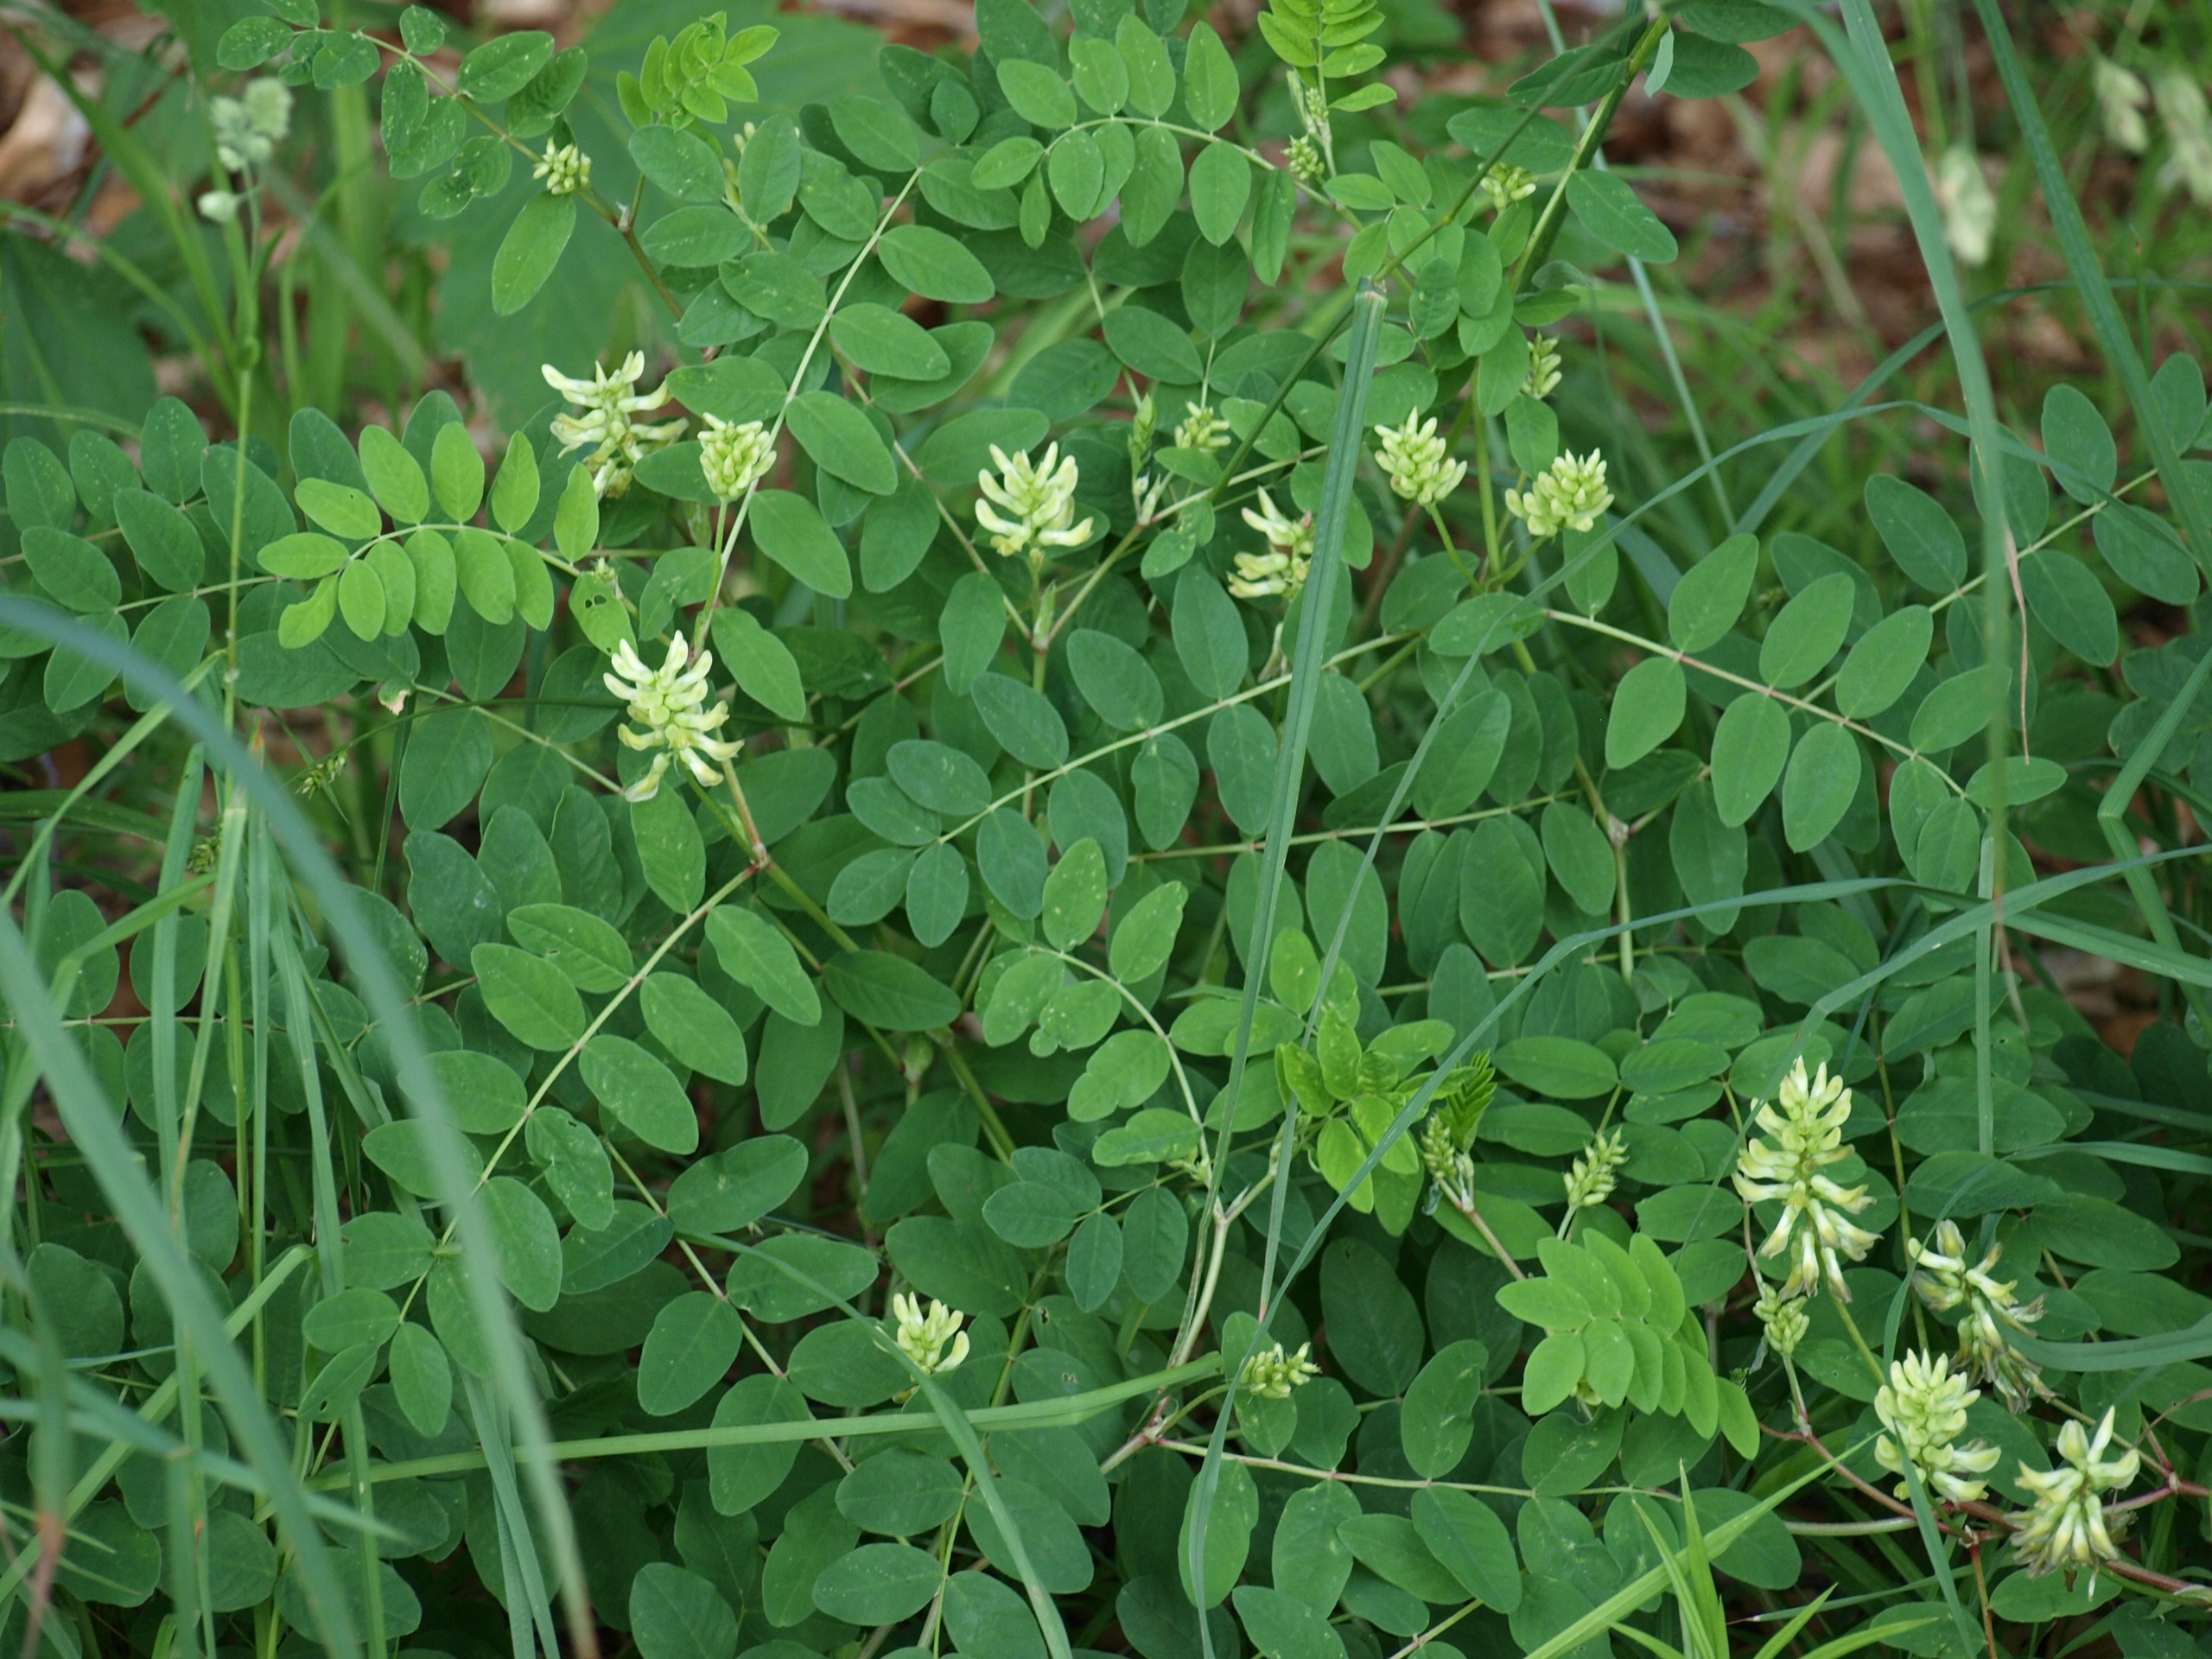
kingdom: Plantae
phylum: Tracheophyta
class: Magnoliopsida
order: Fabales
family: Fabaceae
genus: Astragalus
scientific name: Astragalus glycyphyllos
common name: Sød astragel
